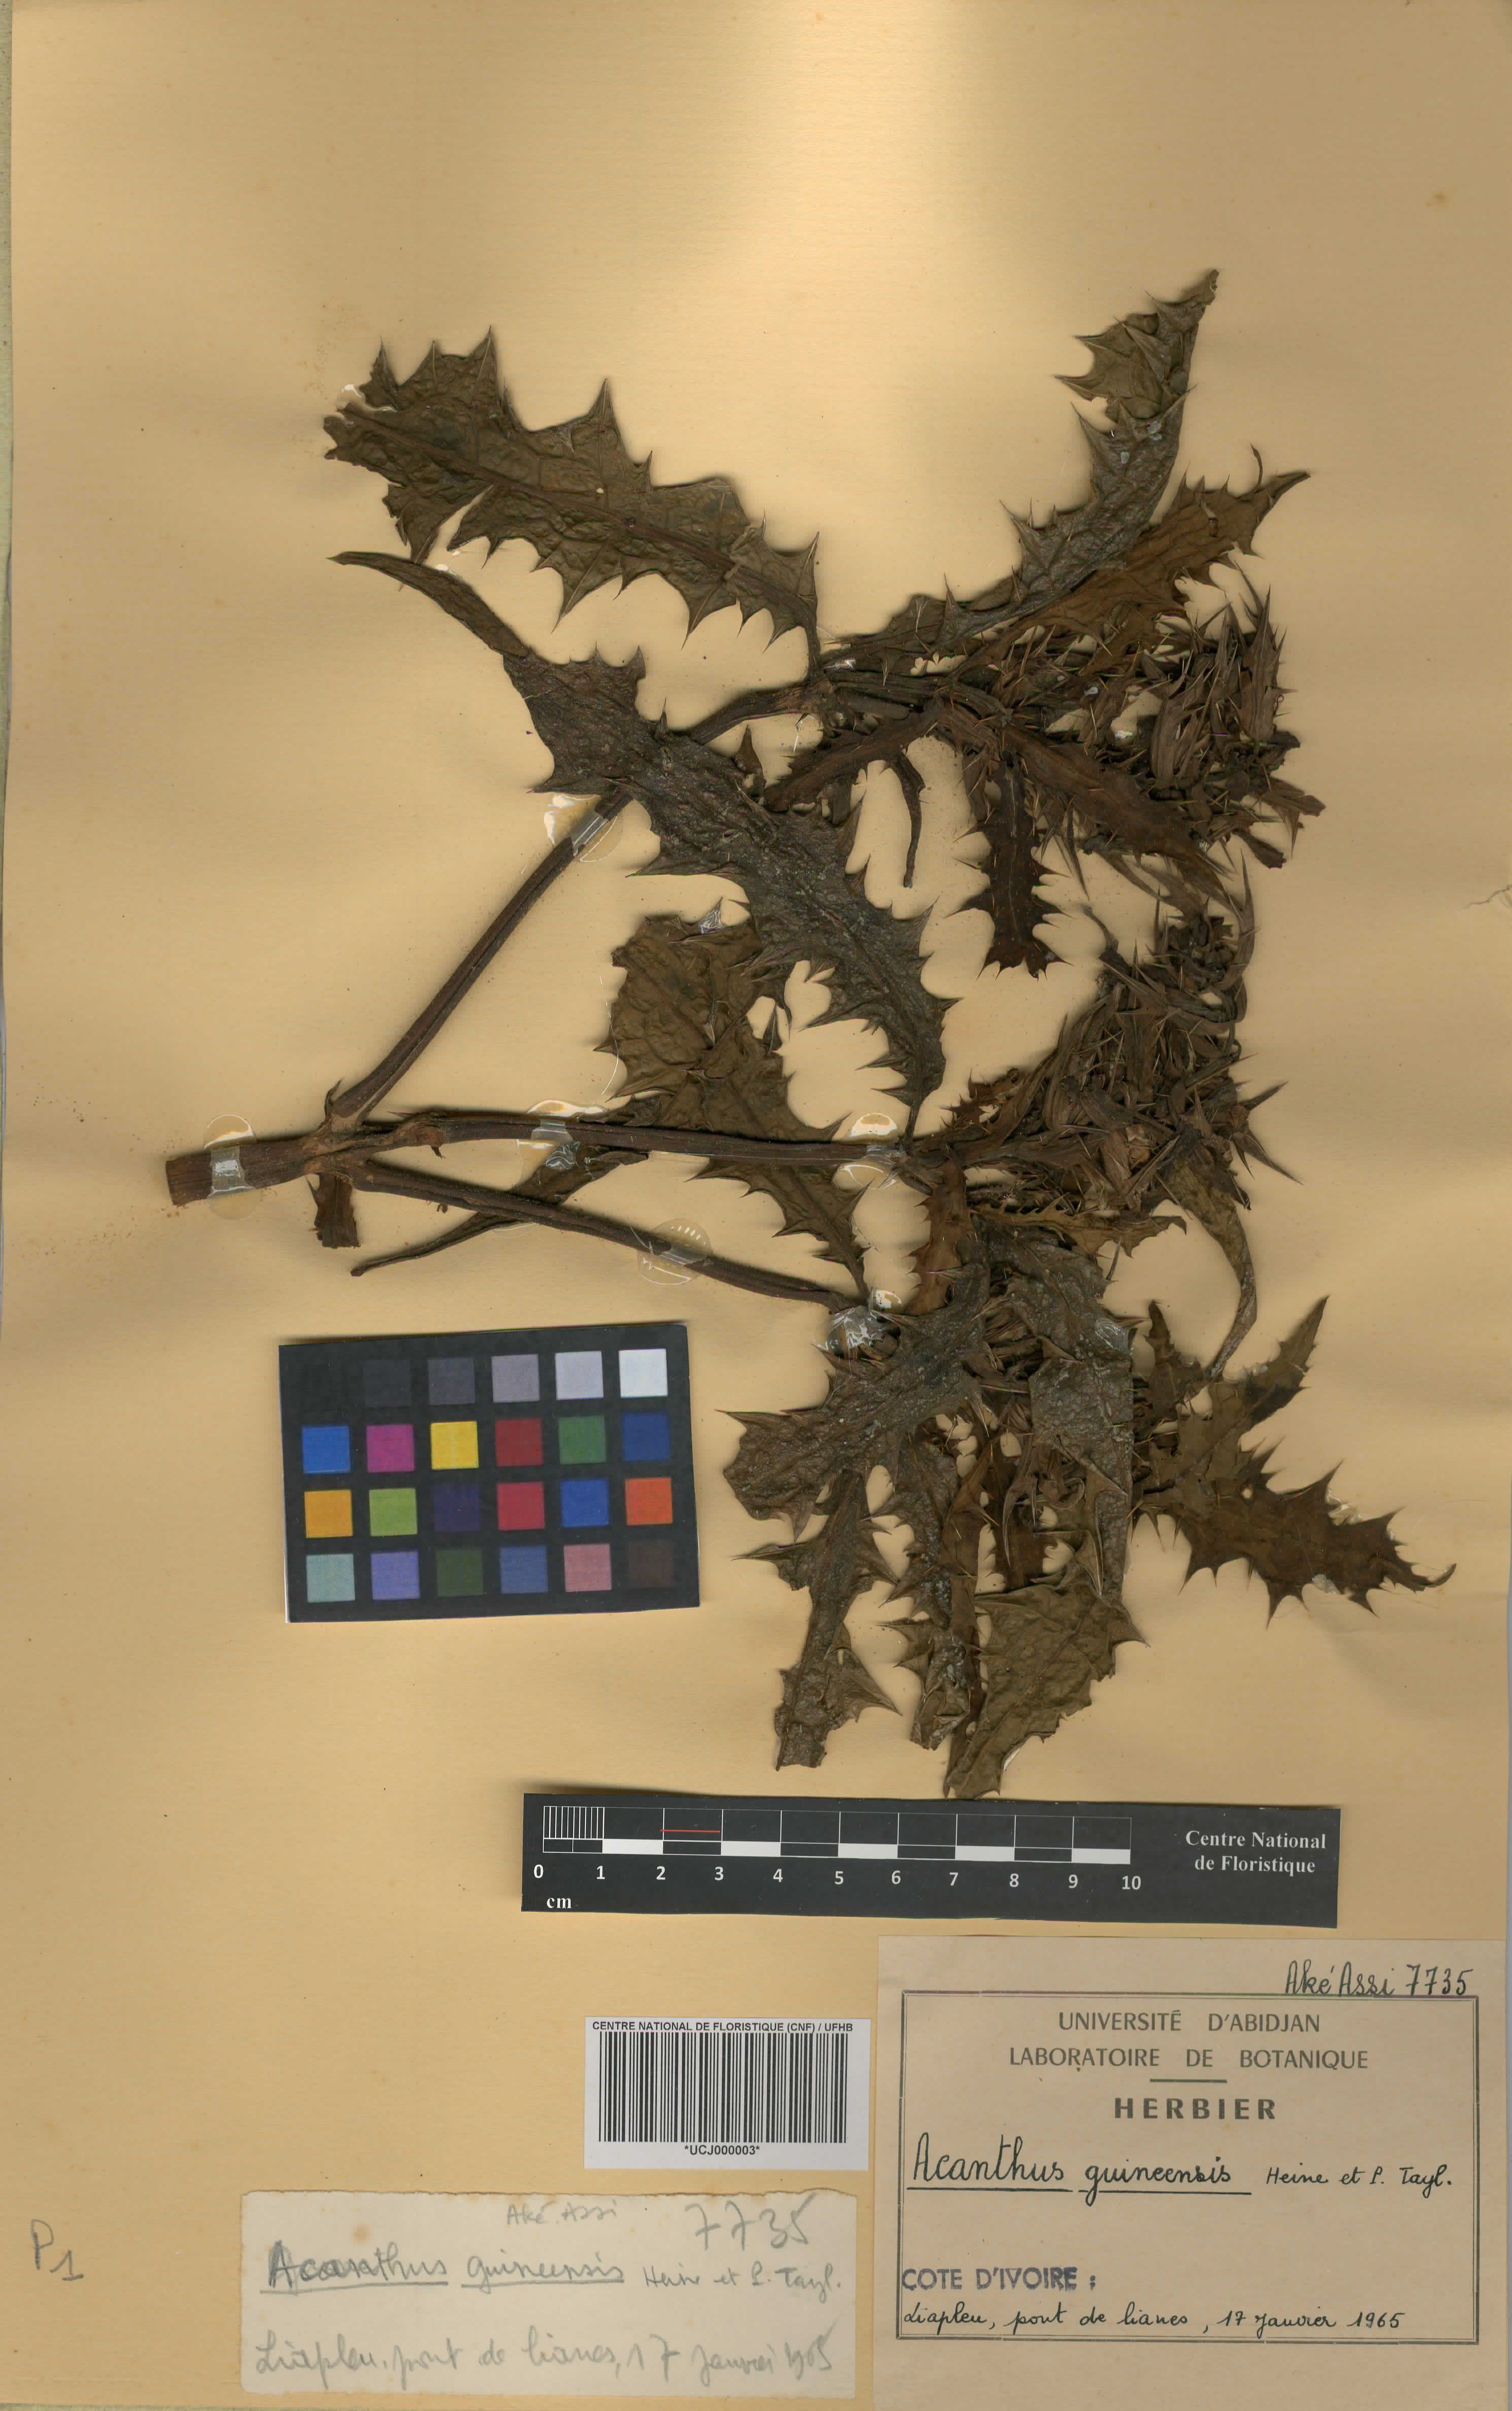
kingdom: Plantae
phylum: Tracheophyta
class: Magnoliopsida
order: Lamiales
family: Acanthaceae
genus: Acanthus
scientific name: Acanthus guineensis
